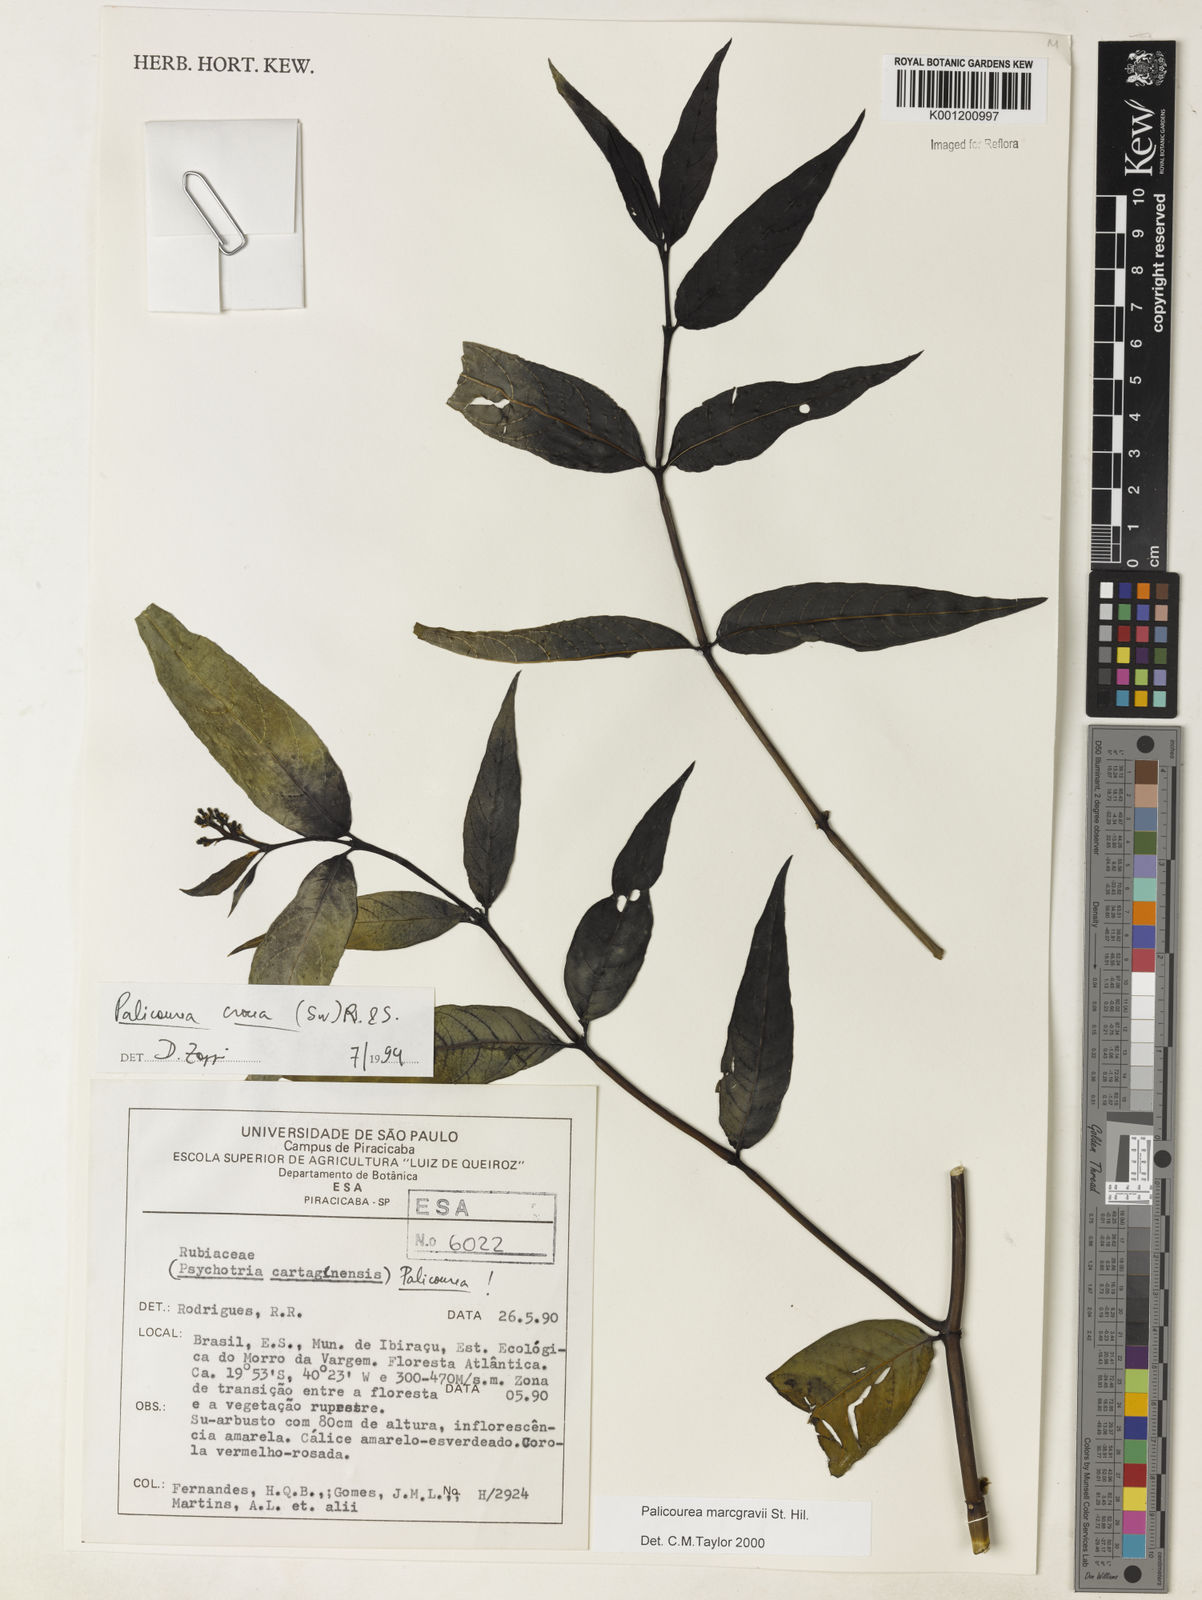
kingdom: Plantae
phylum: Tracheophyta
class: Magnoliopsida
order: Gentianales
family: Rubiaceae
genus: Palicourea
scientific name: Palicourea marcgravii
